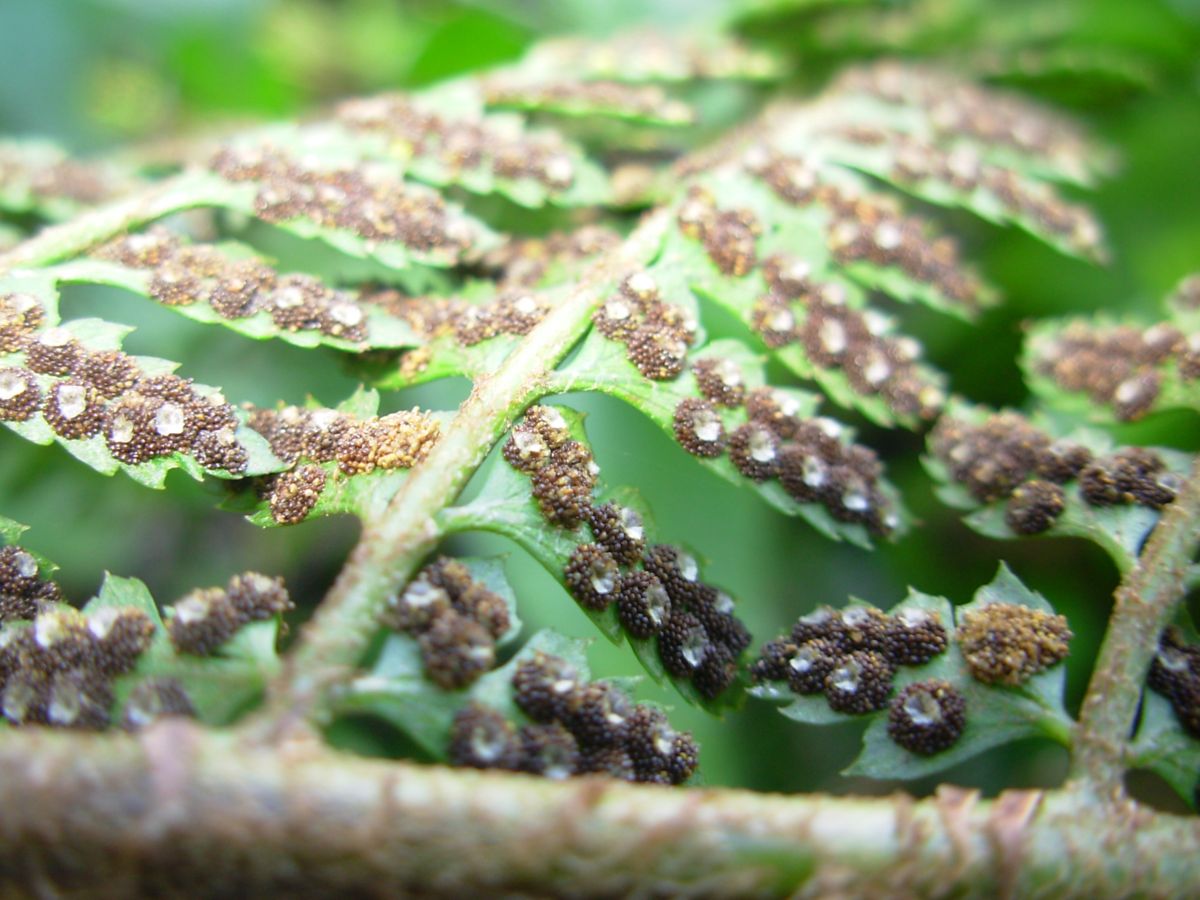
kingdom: Plantae
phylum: Tracheophyta
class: Polypodiopsida
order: Polypodiales
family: Dryopteridaceae
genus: Polystichum
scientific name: Polystichum hartwegii
